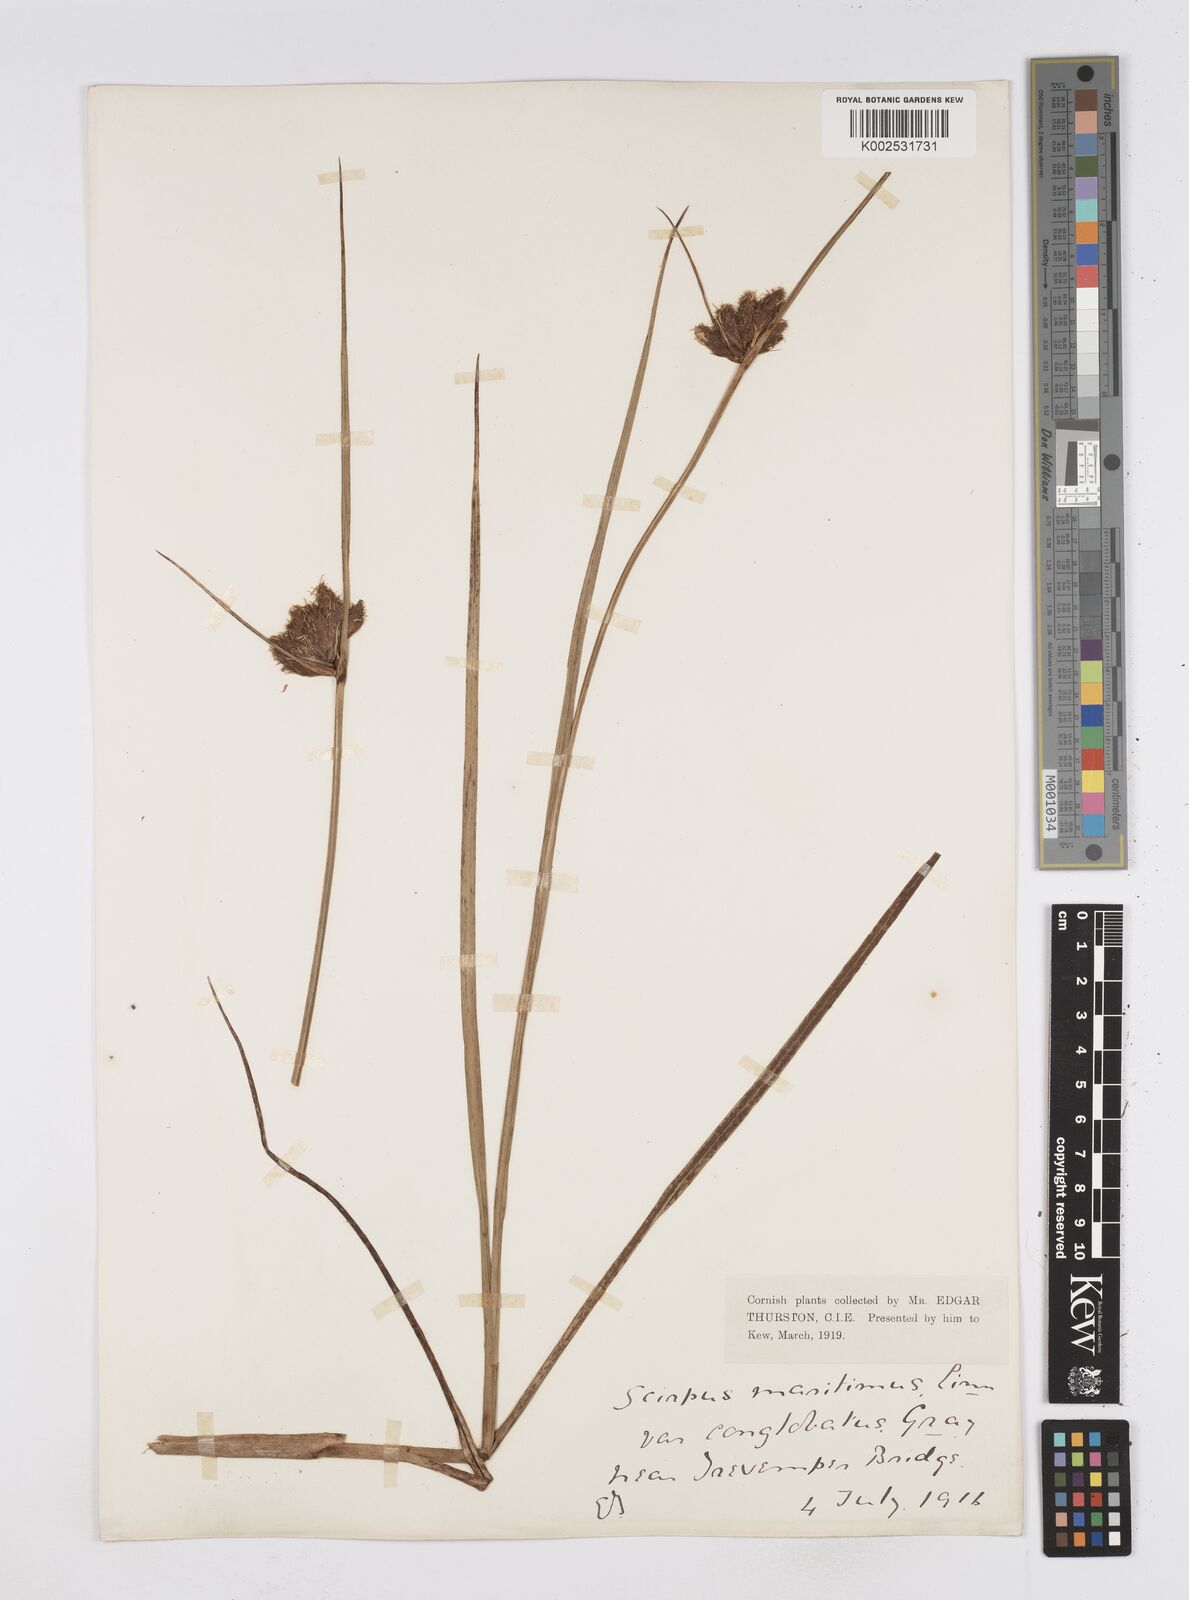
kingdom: Plantae
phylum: Tracheophyta
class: Liliopsida
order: Poales
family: Cyperaceae
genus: Bolboschoenus
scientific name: Bolboschoenus maritimus
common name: Sea club-rush
